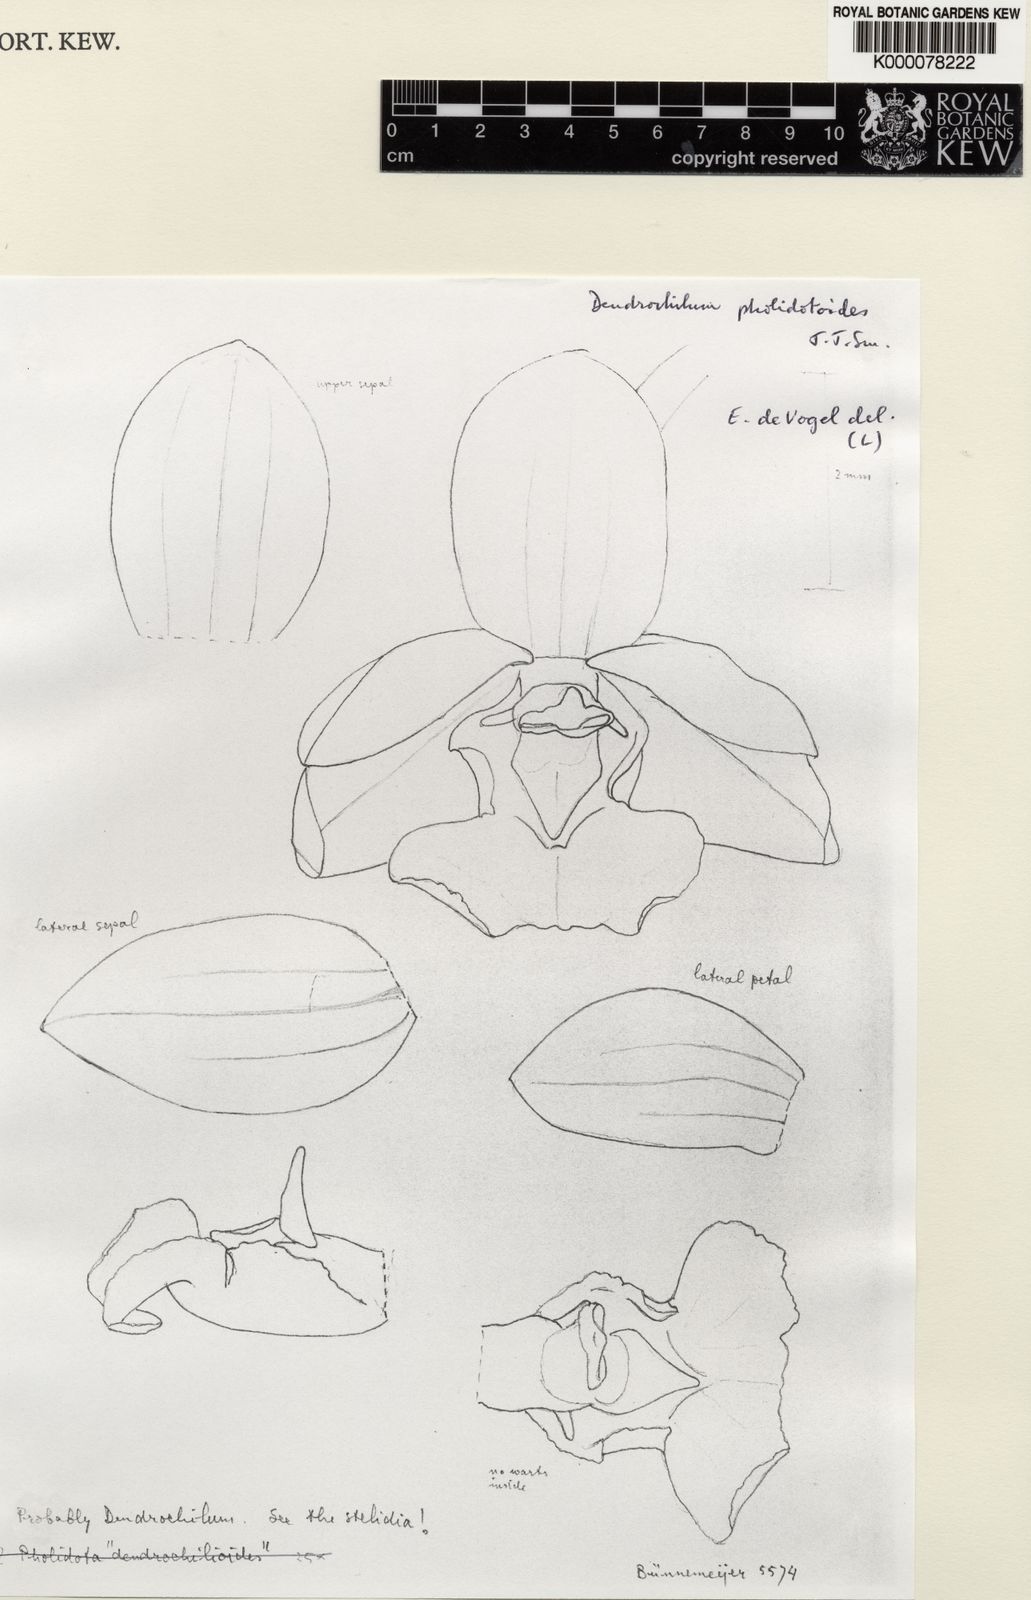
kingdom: Plantae
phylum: Tracheophyta
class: Liliopsida
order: Asparagales
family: Orchidaceae
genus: Coelogyne
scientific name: Coelogyne
